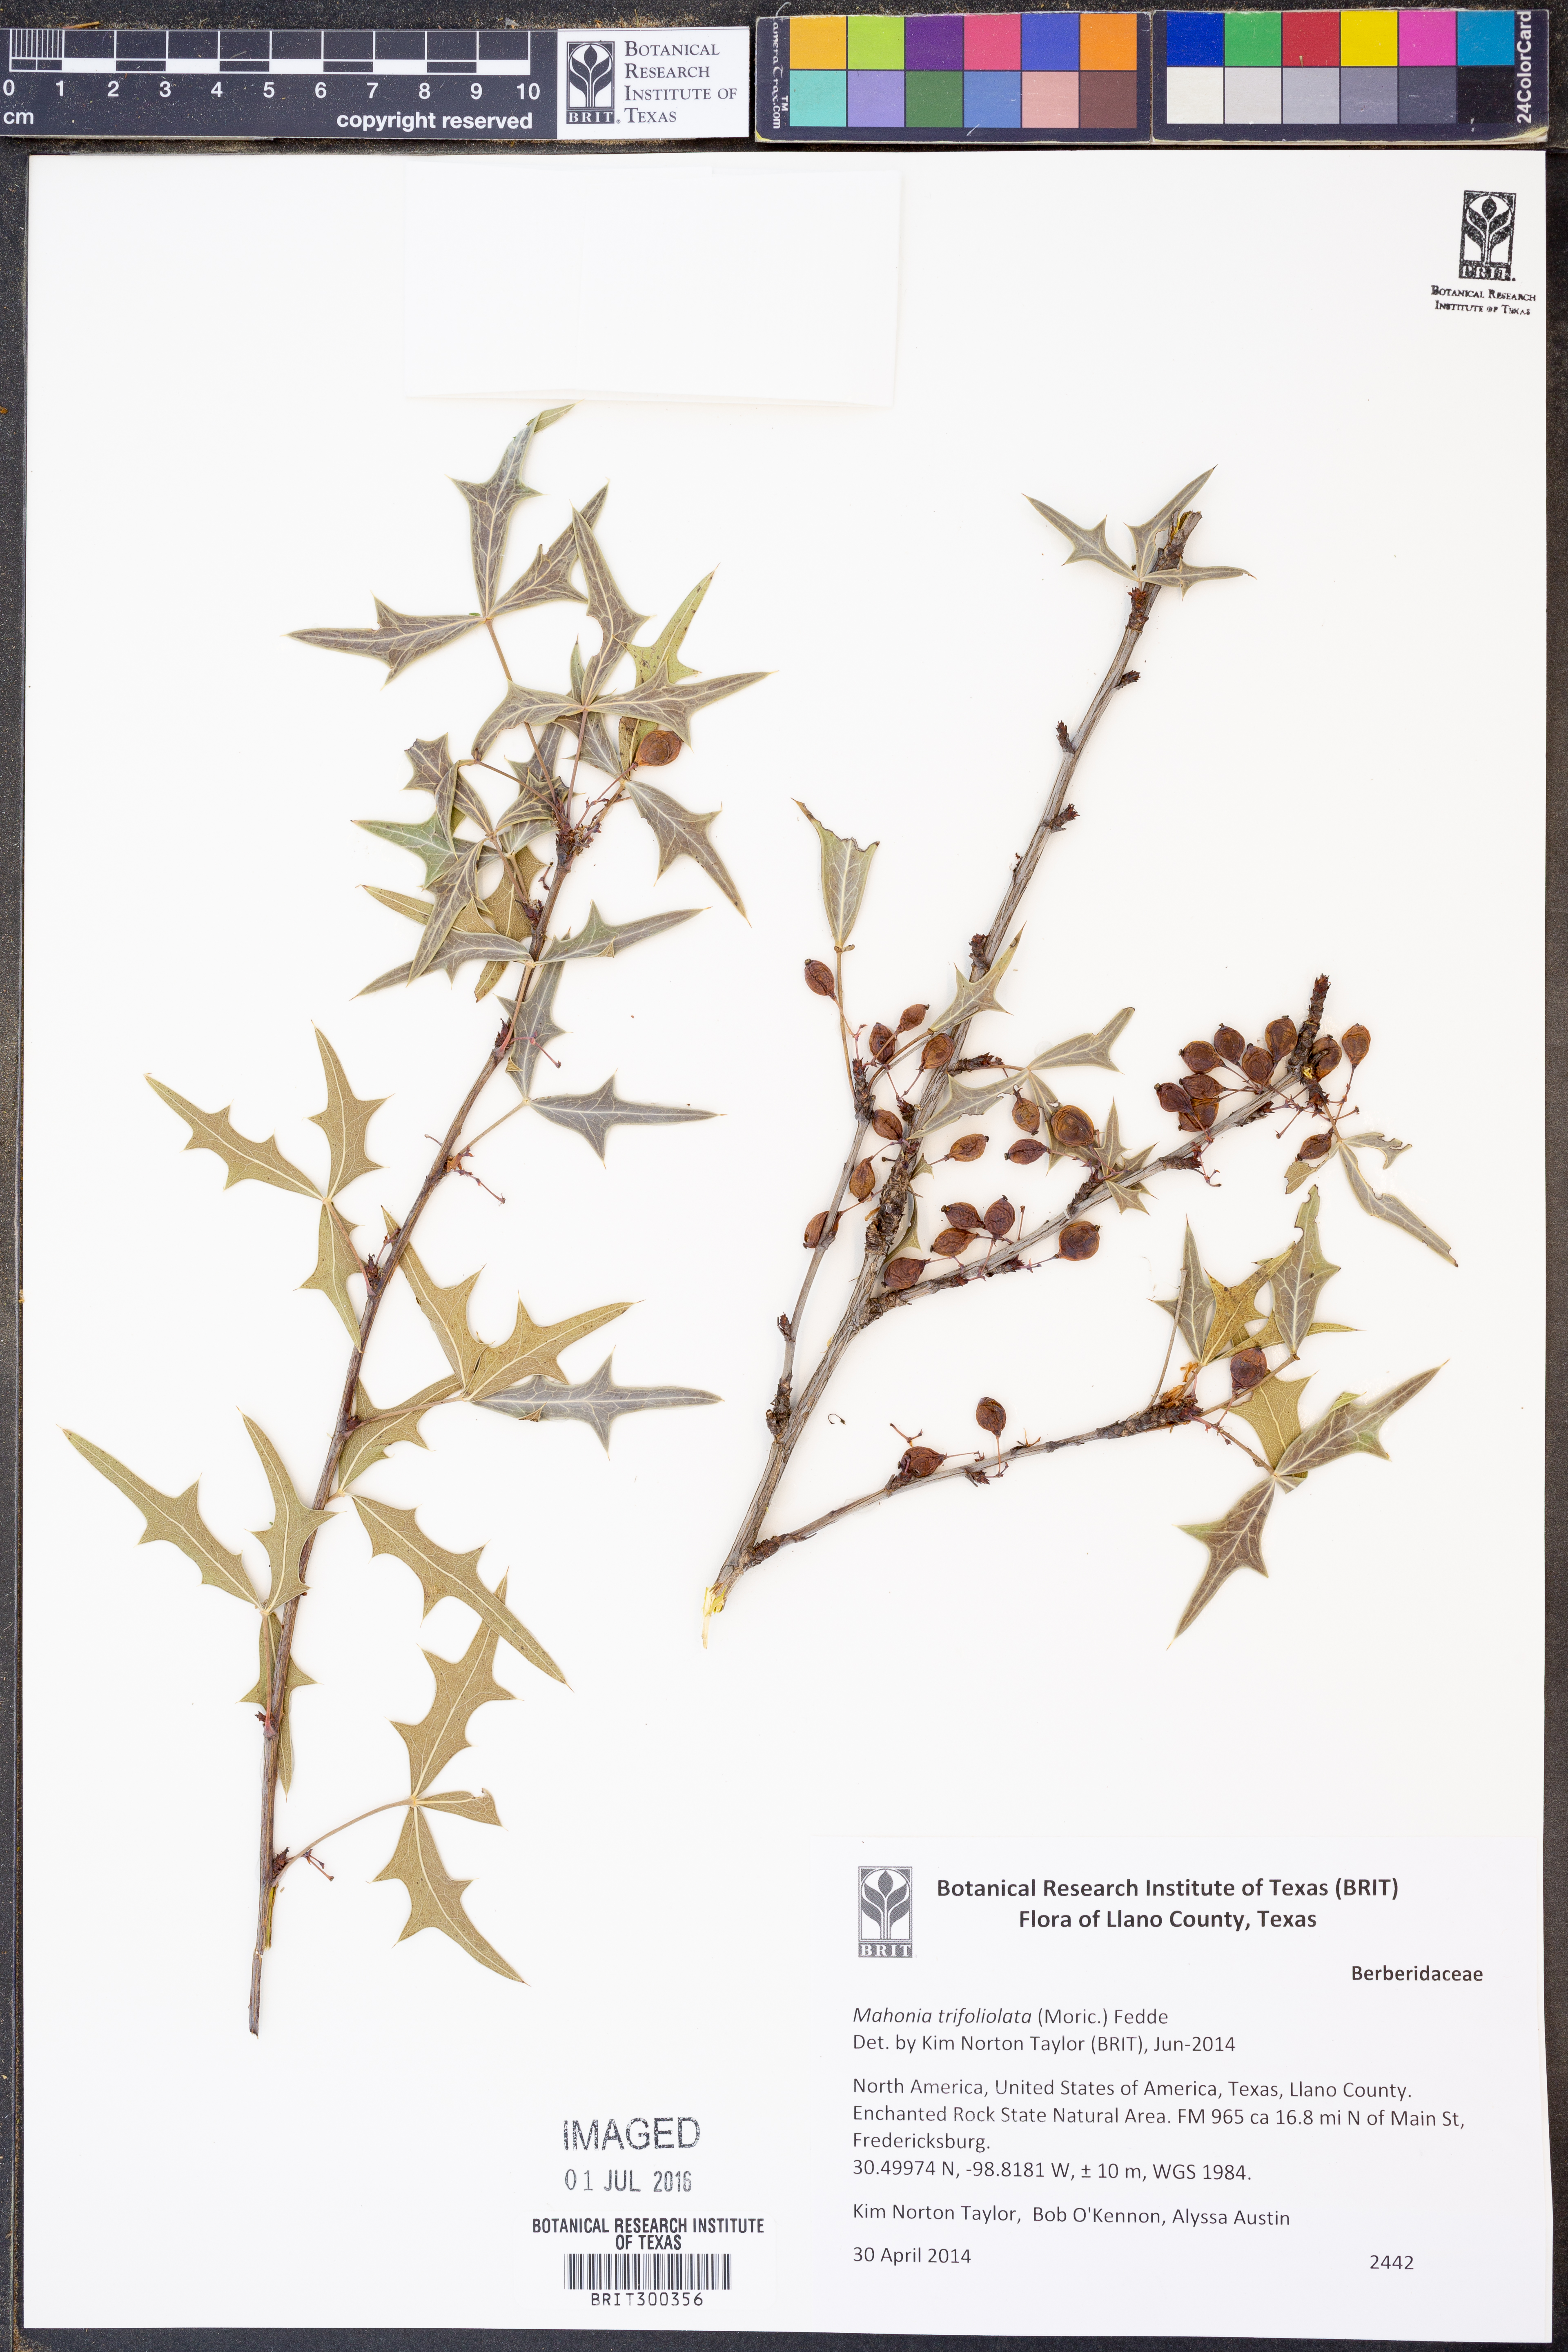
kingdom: Plantae
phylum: Tracheophyta
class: Magnoliopsida
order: Ranunculales
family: Berberidaceae
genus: Mahonia
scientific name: Mahonia trifolia
